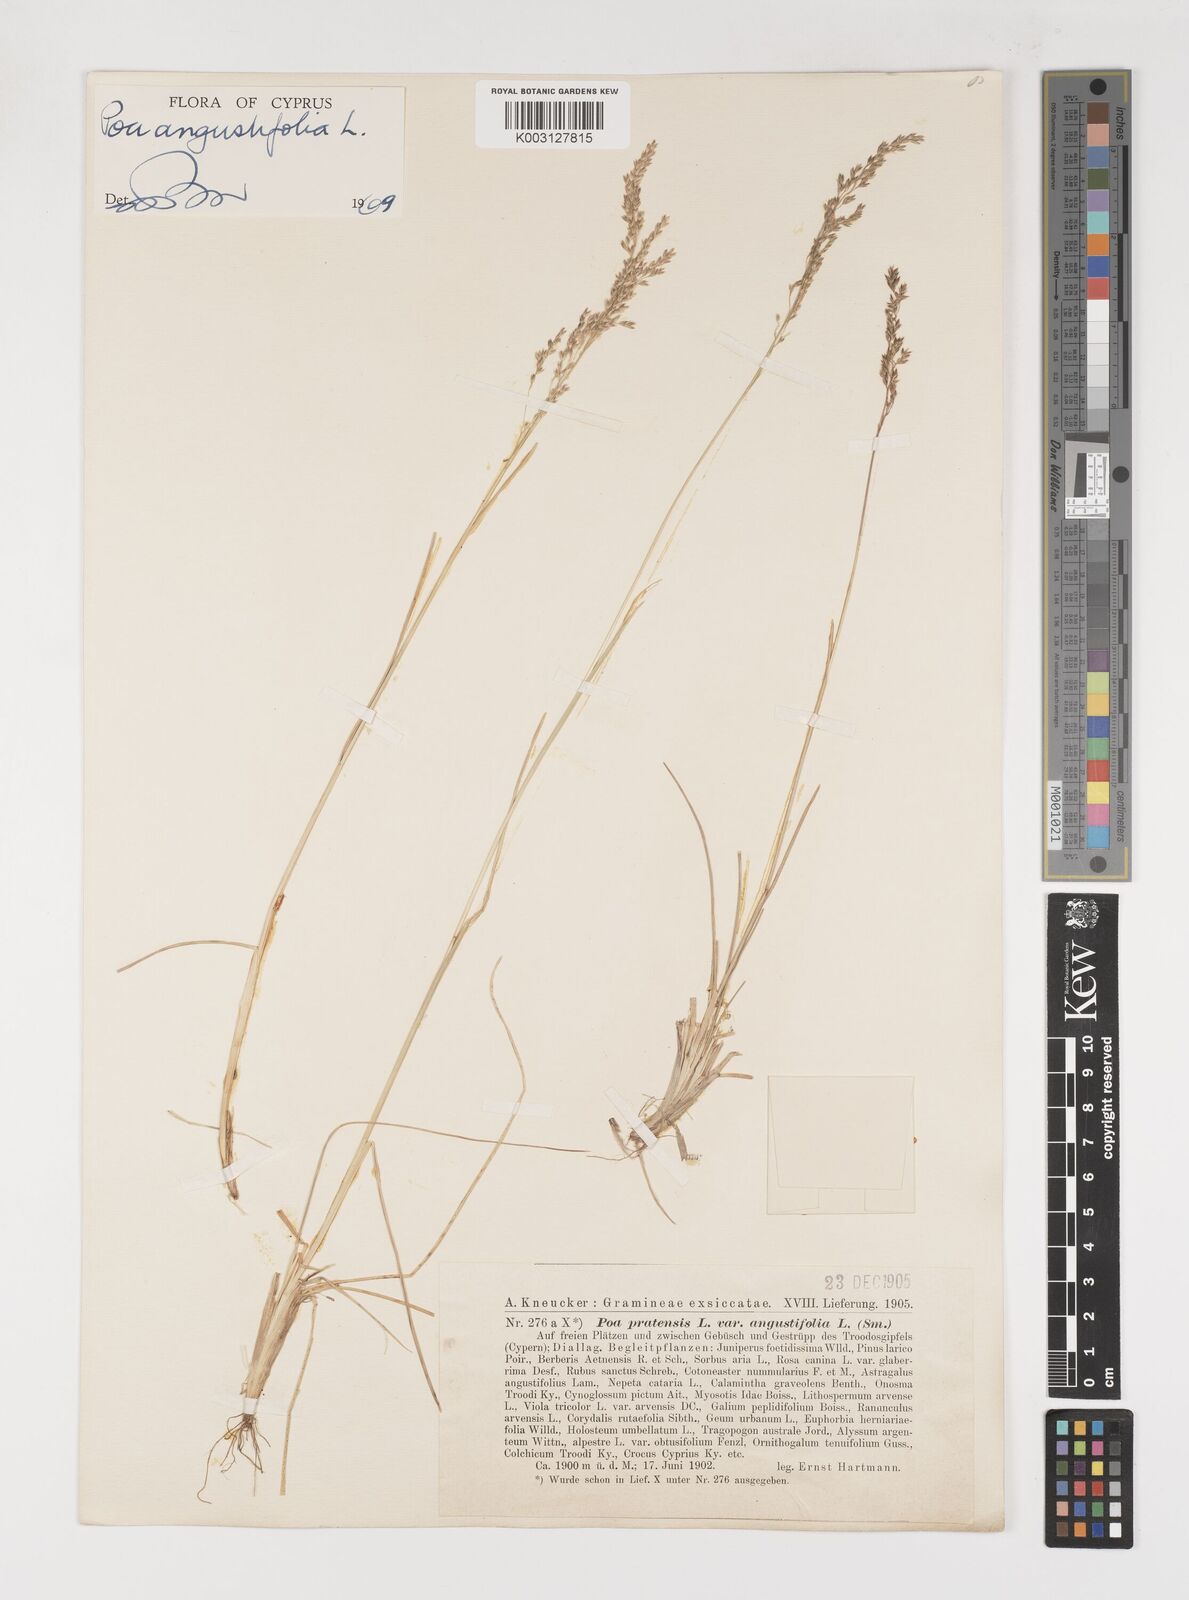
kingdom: Plantae
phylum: Tracheophyta
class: Liliopsida
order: Poales
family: Poaceae
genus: Poa
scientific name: Poa angustifolia
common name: Narrow-leaved meadow-grass
